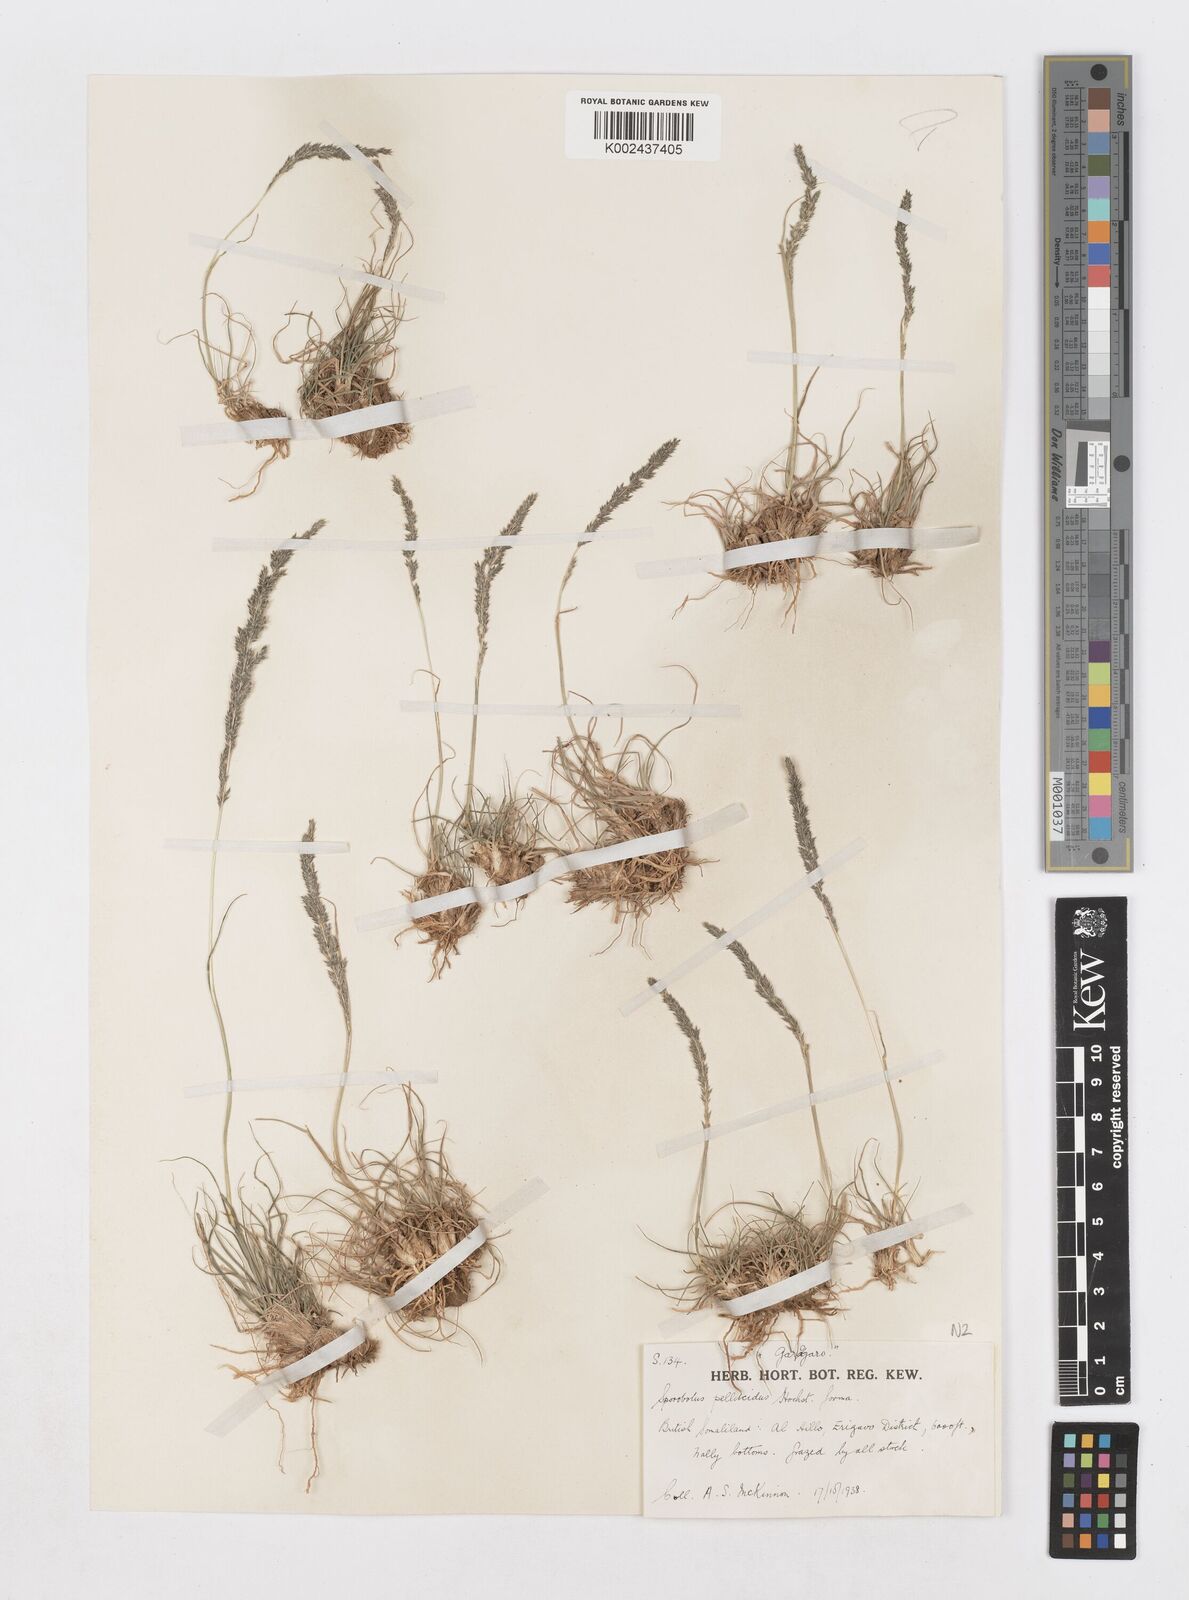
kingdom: Plantae
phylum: Tracheophyta
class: Liliopsida
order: Poales
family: Poaceae
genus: Sporobolus
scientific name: Sporobolus pellucidus
